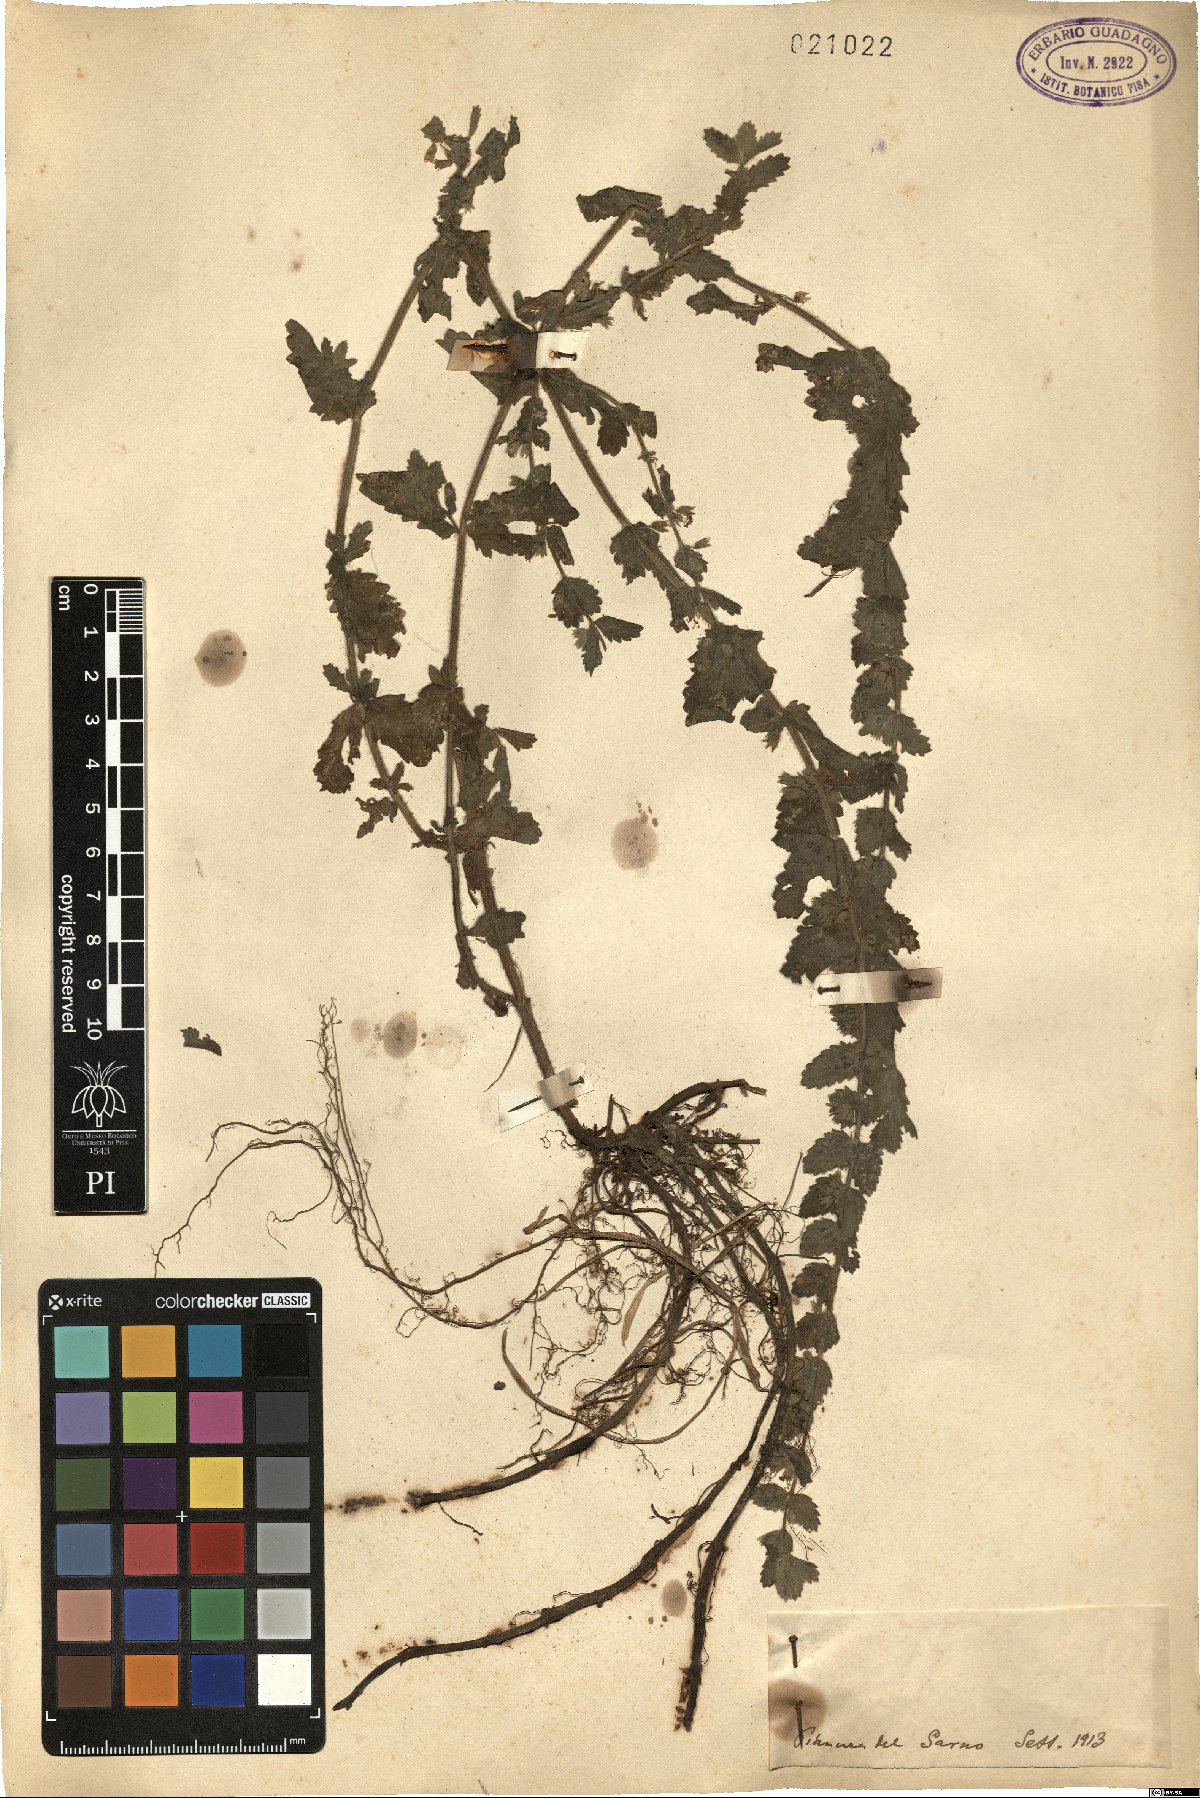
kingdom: Plantae
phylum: Tracheophyta
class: Magnoliopsida
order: Lamiales
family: Lamiaceae
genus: Teucrium
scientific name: Teucrium
